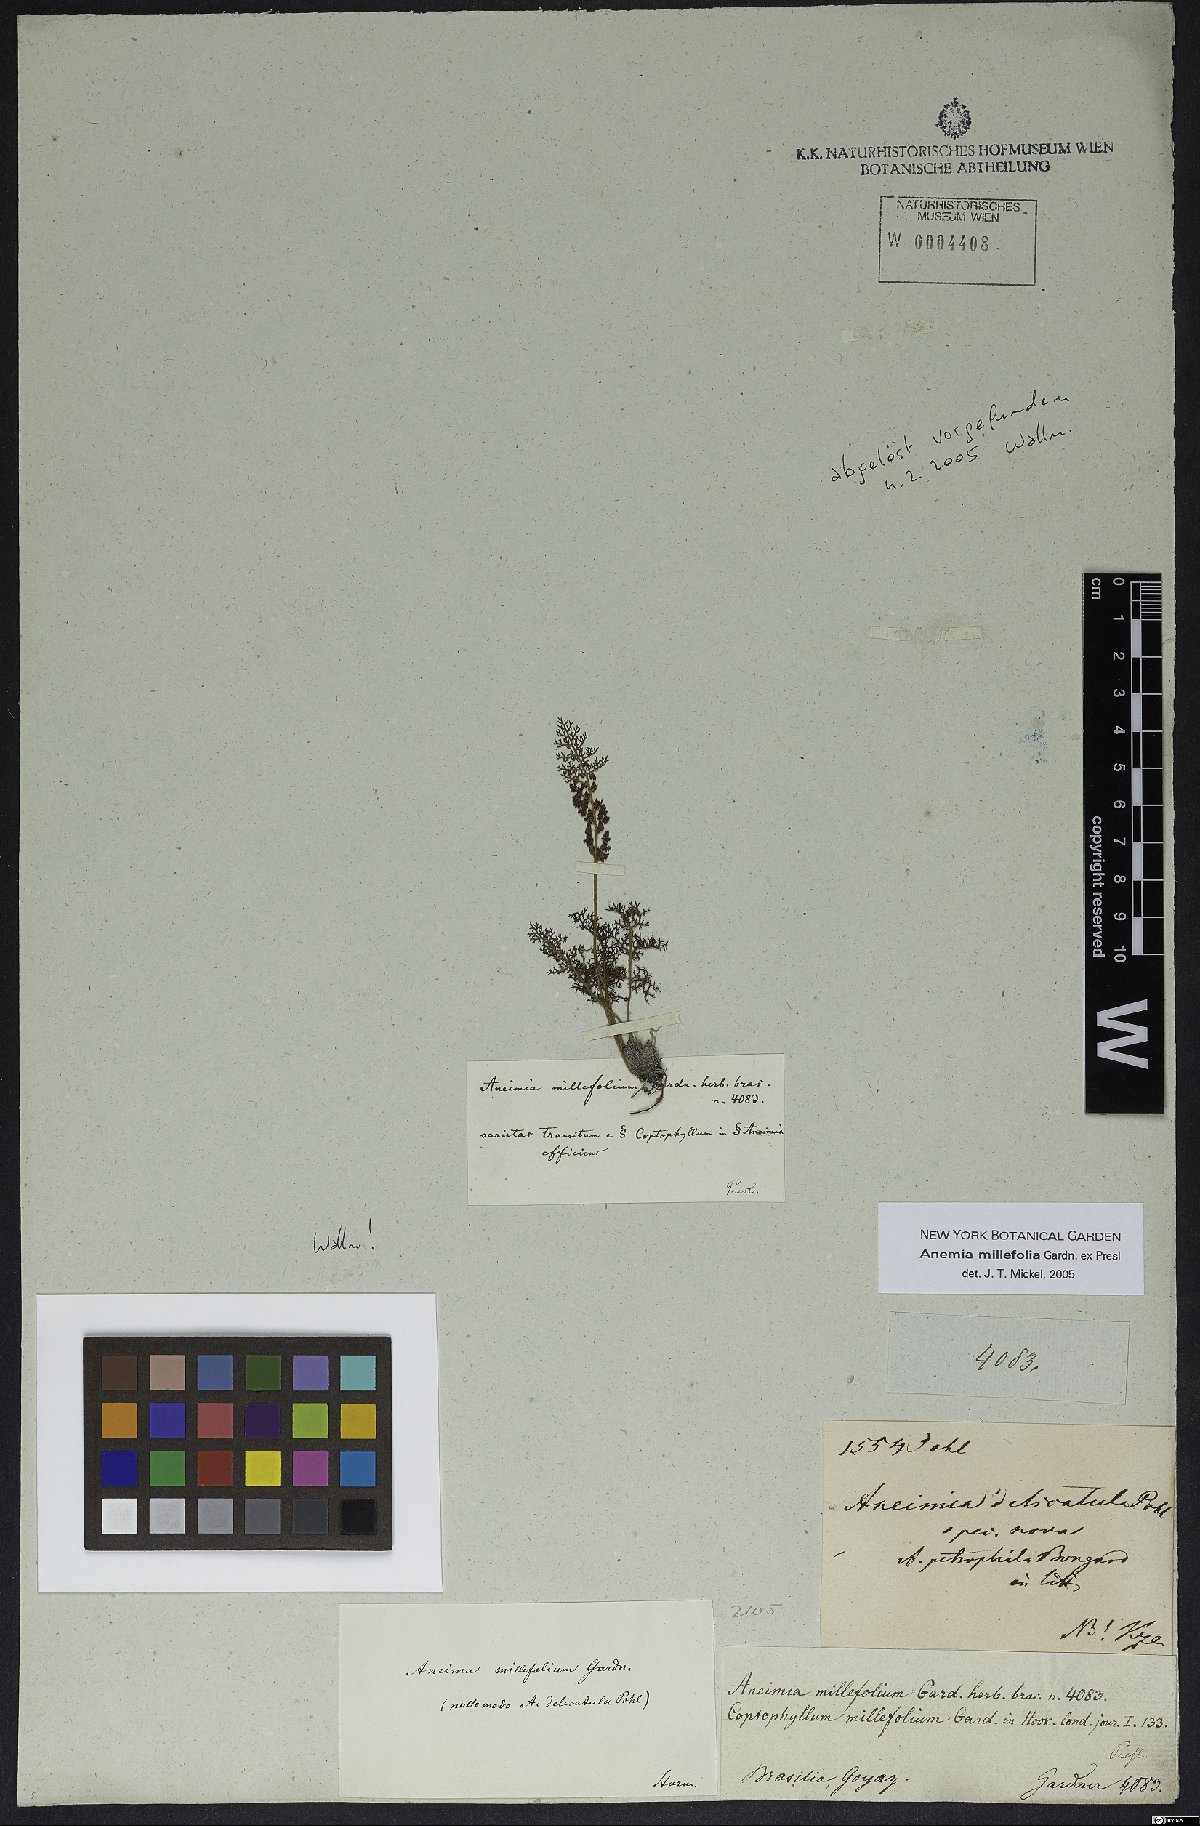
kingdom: Plantae
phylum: Tracheophyta
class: Polypodiopsida
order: Schizaeales
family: Anemiaceae
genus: Anemia
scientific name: Anemia millefolia
